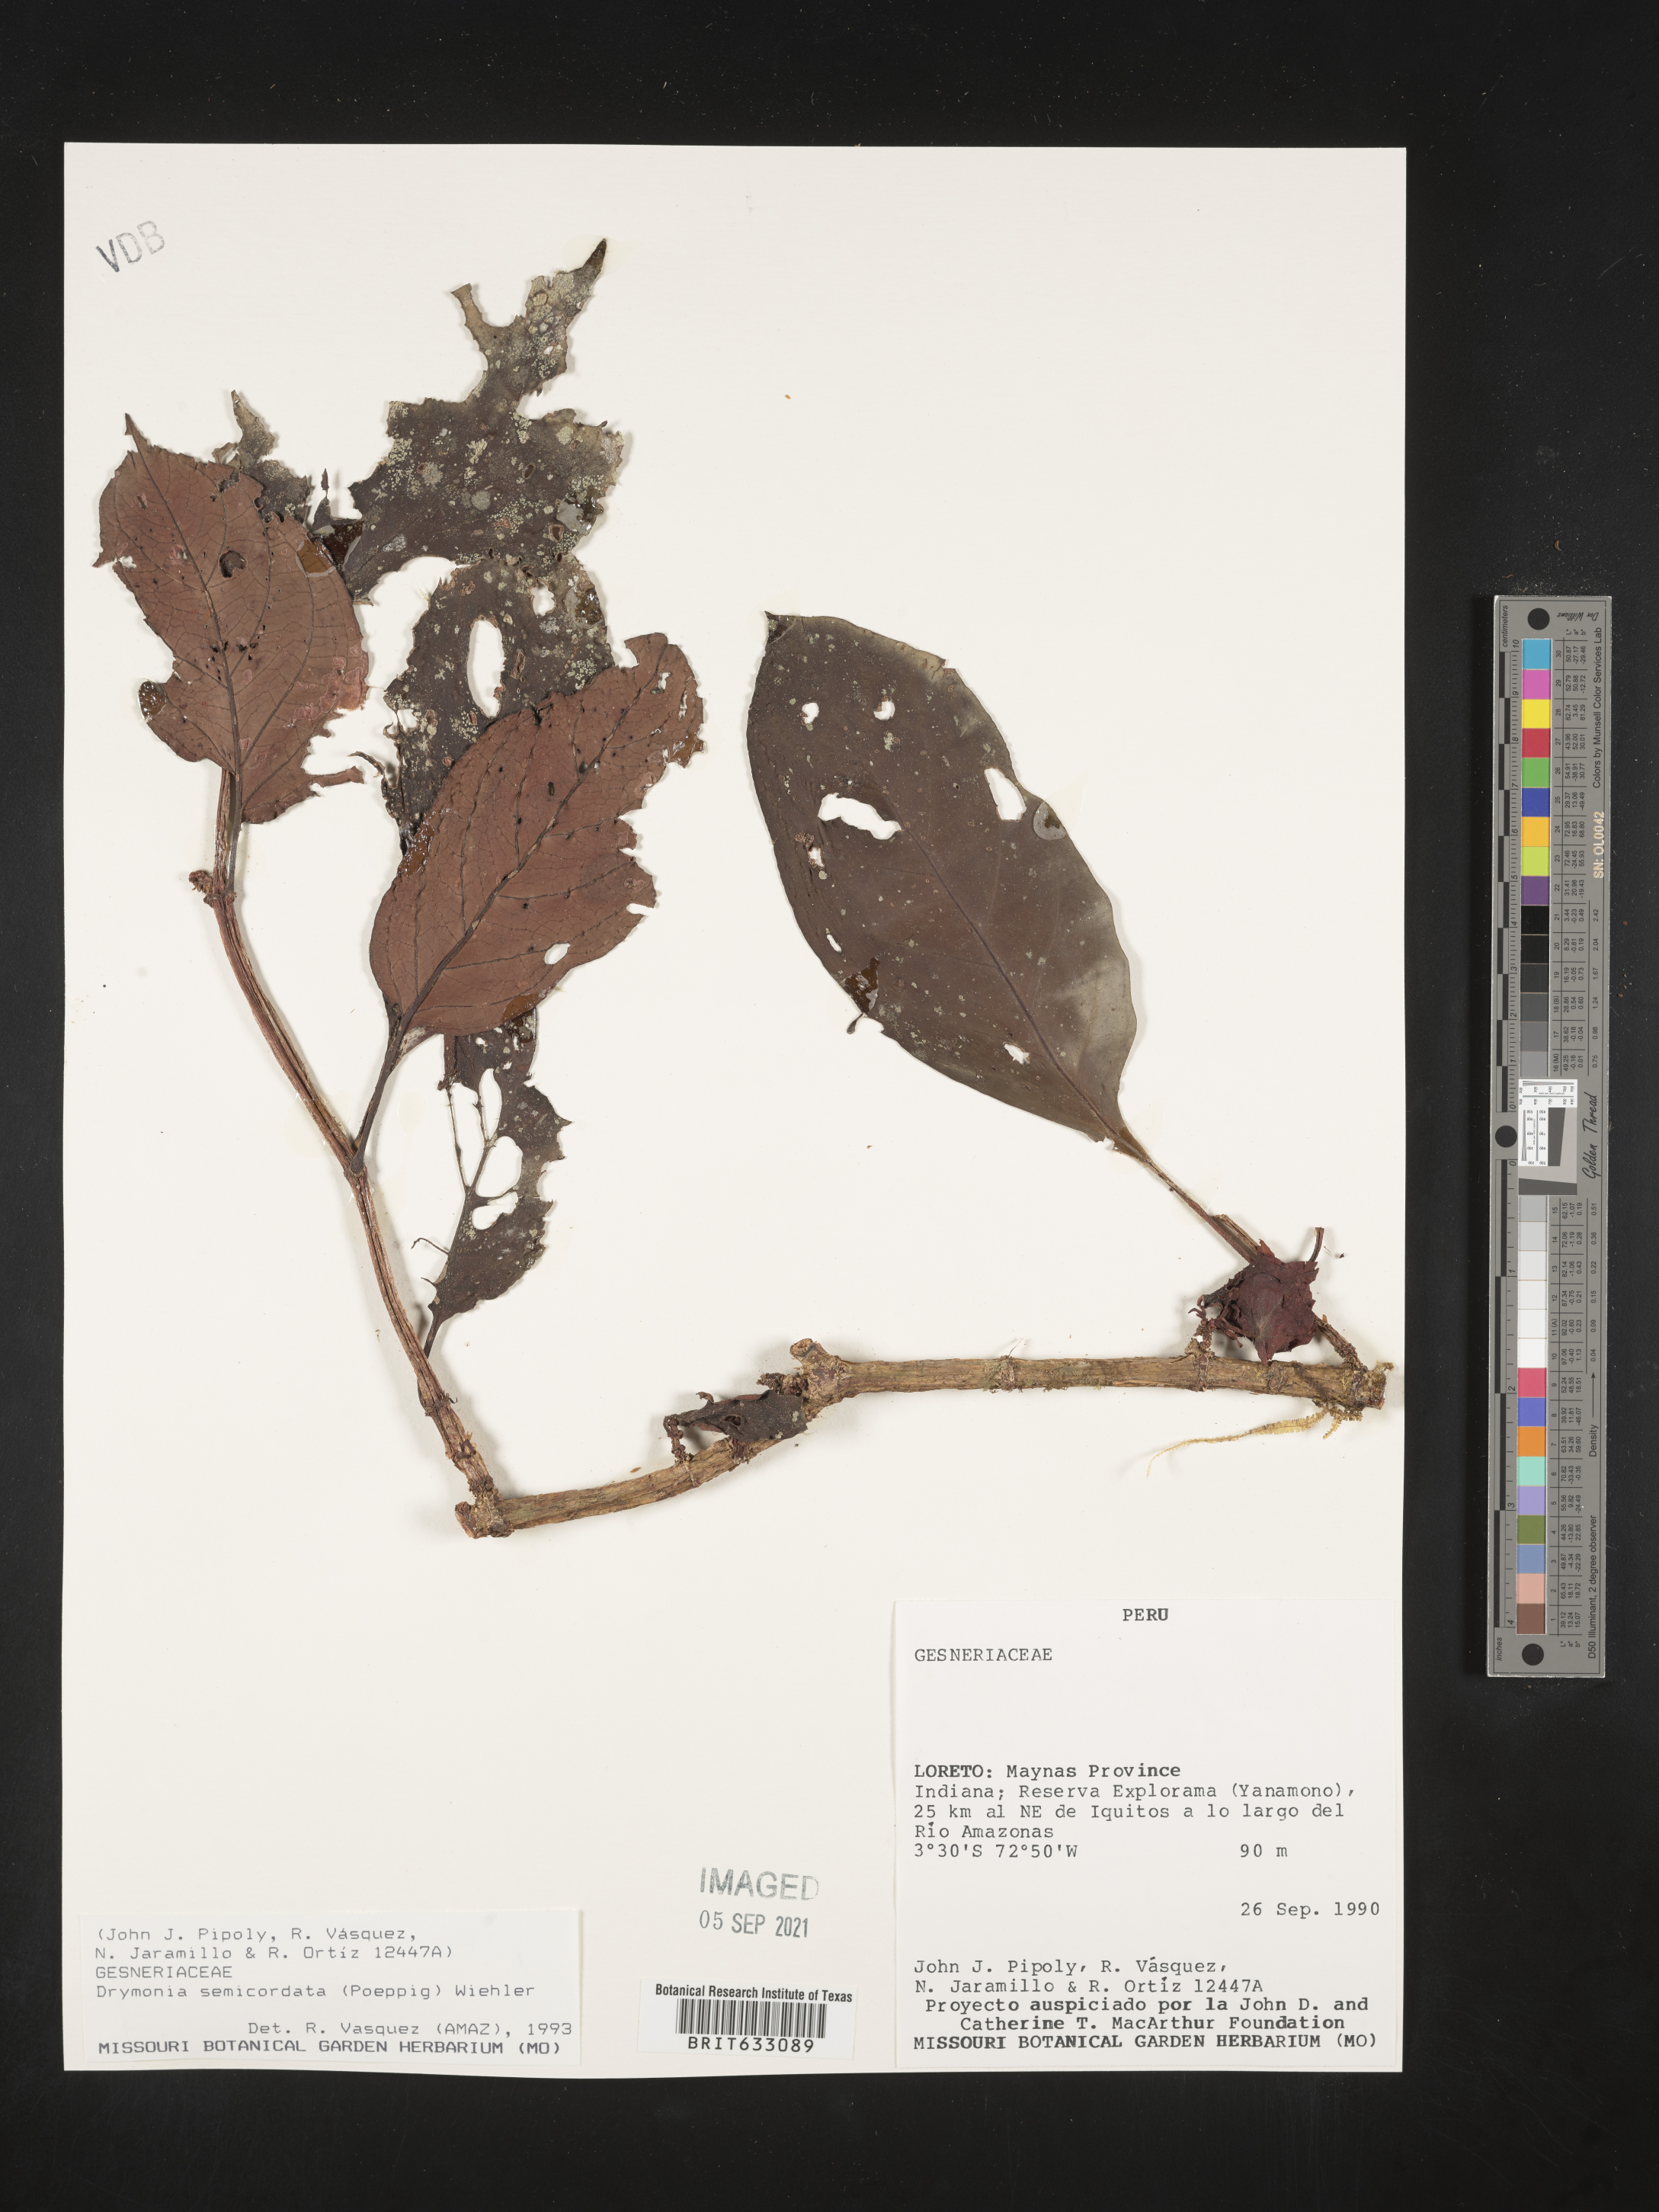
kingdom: Plantae
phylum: Tracheophyta
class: Magnoliopsida
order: Lamiales
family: Gesneriaceae
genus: Drymonia
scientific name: Drymonia
